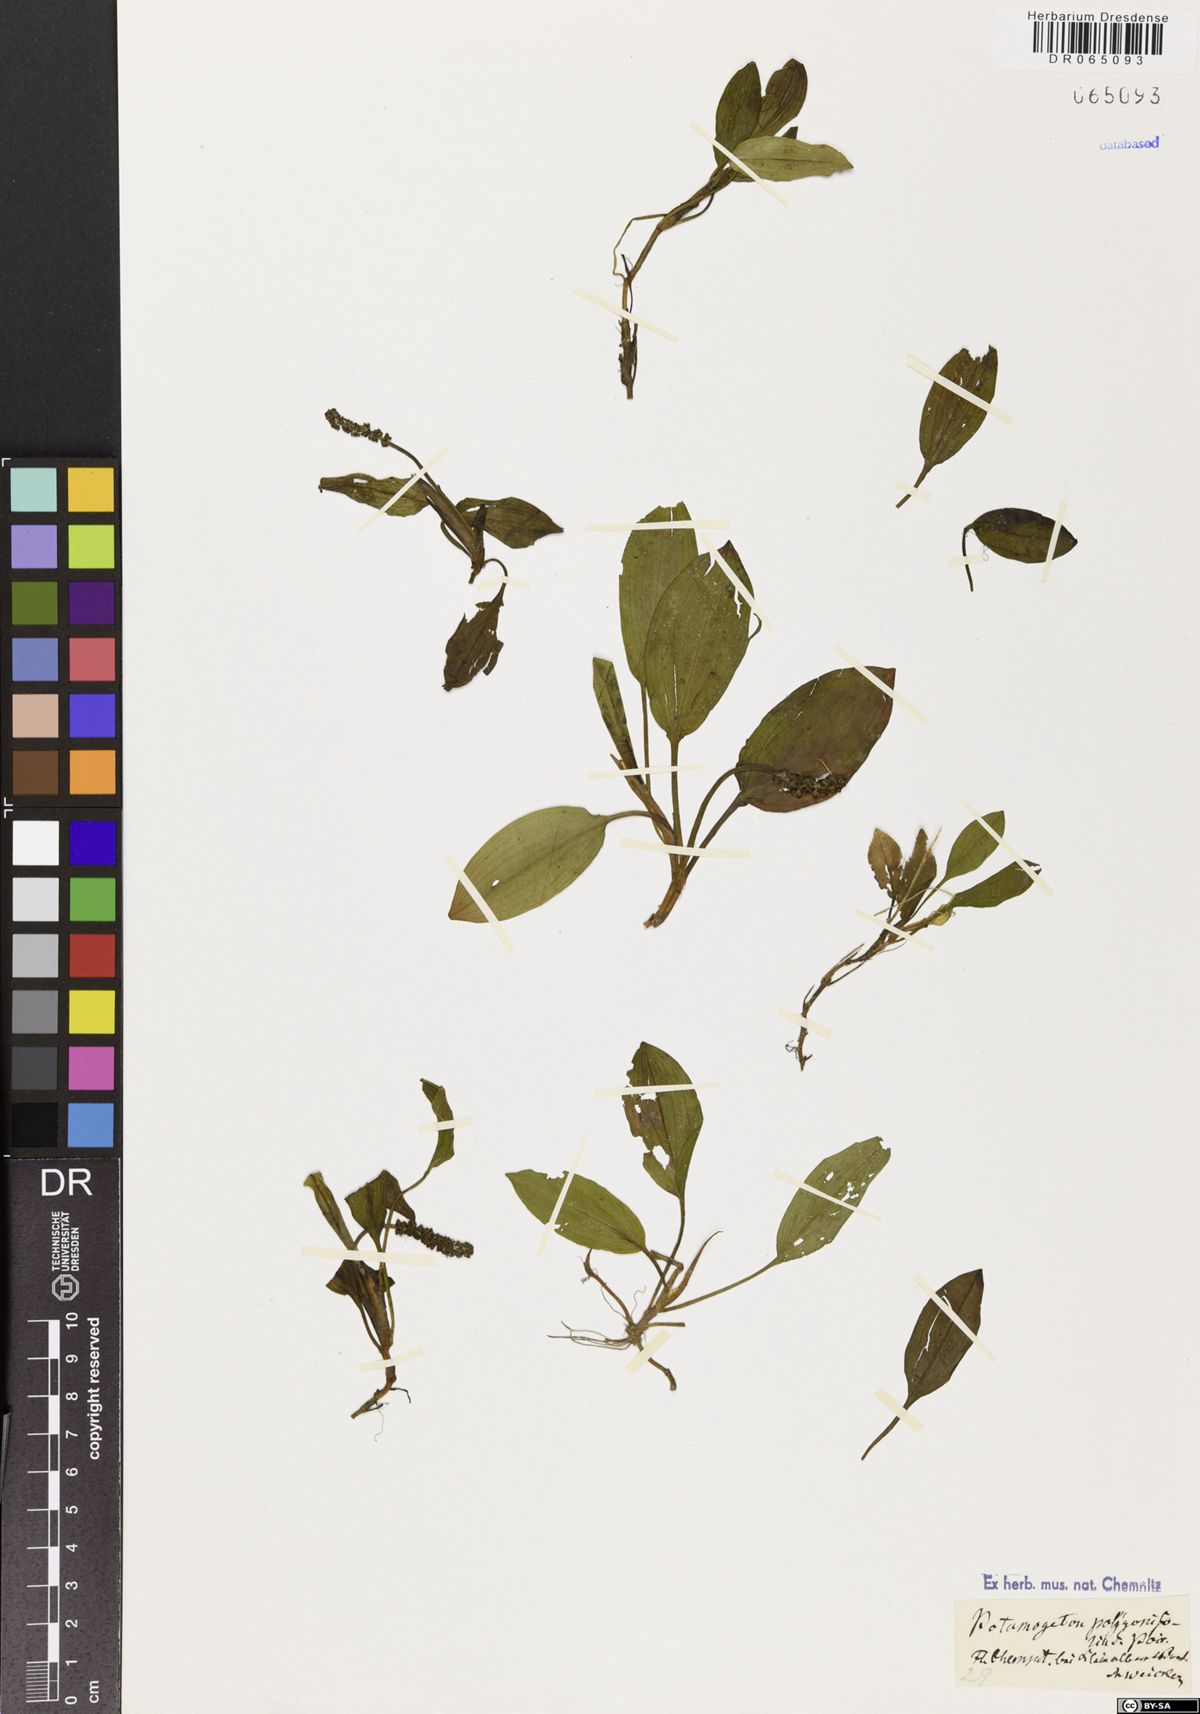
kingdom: Plantae
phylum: Tracheophyta
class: Liliopsida
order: Alismatales
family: Potamogetonaceae
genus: Potamogeton
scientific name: Potamogeton polygonifolius
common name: Bog pondweed
